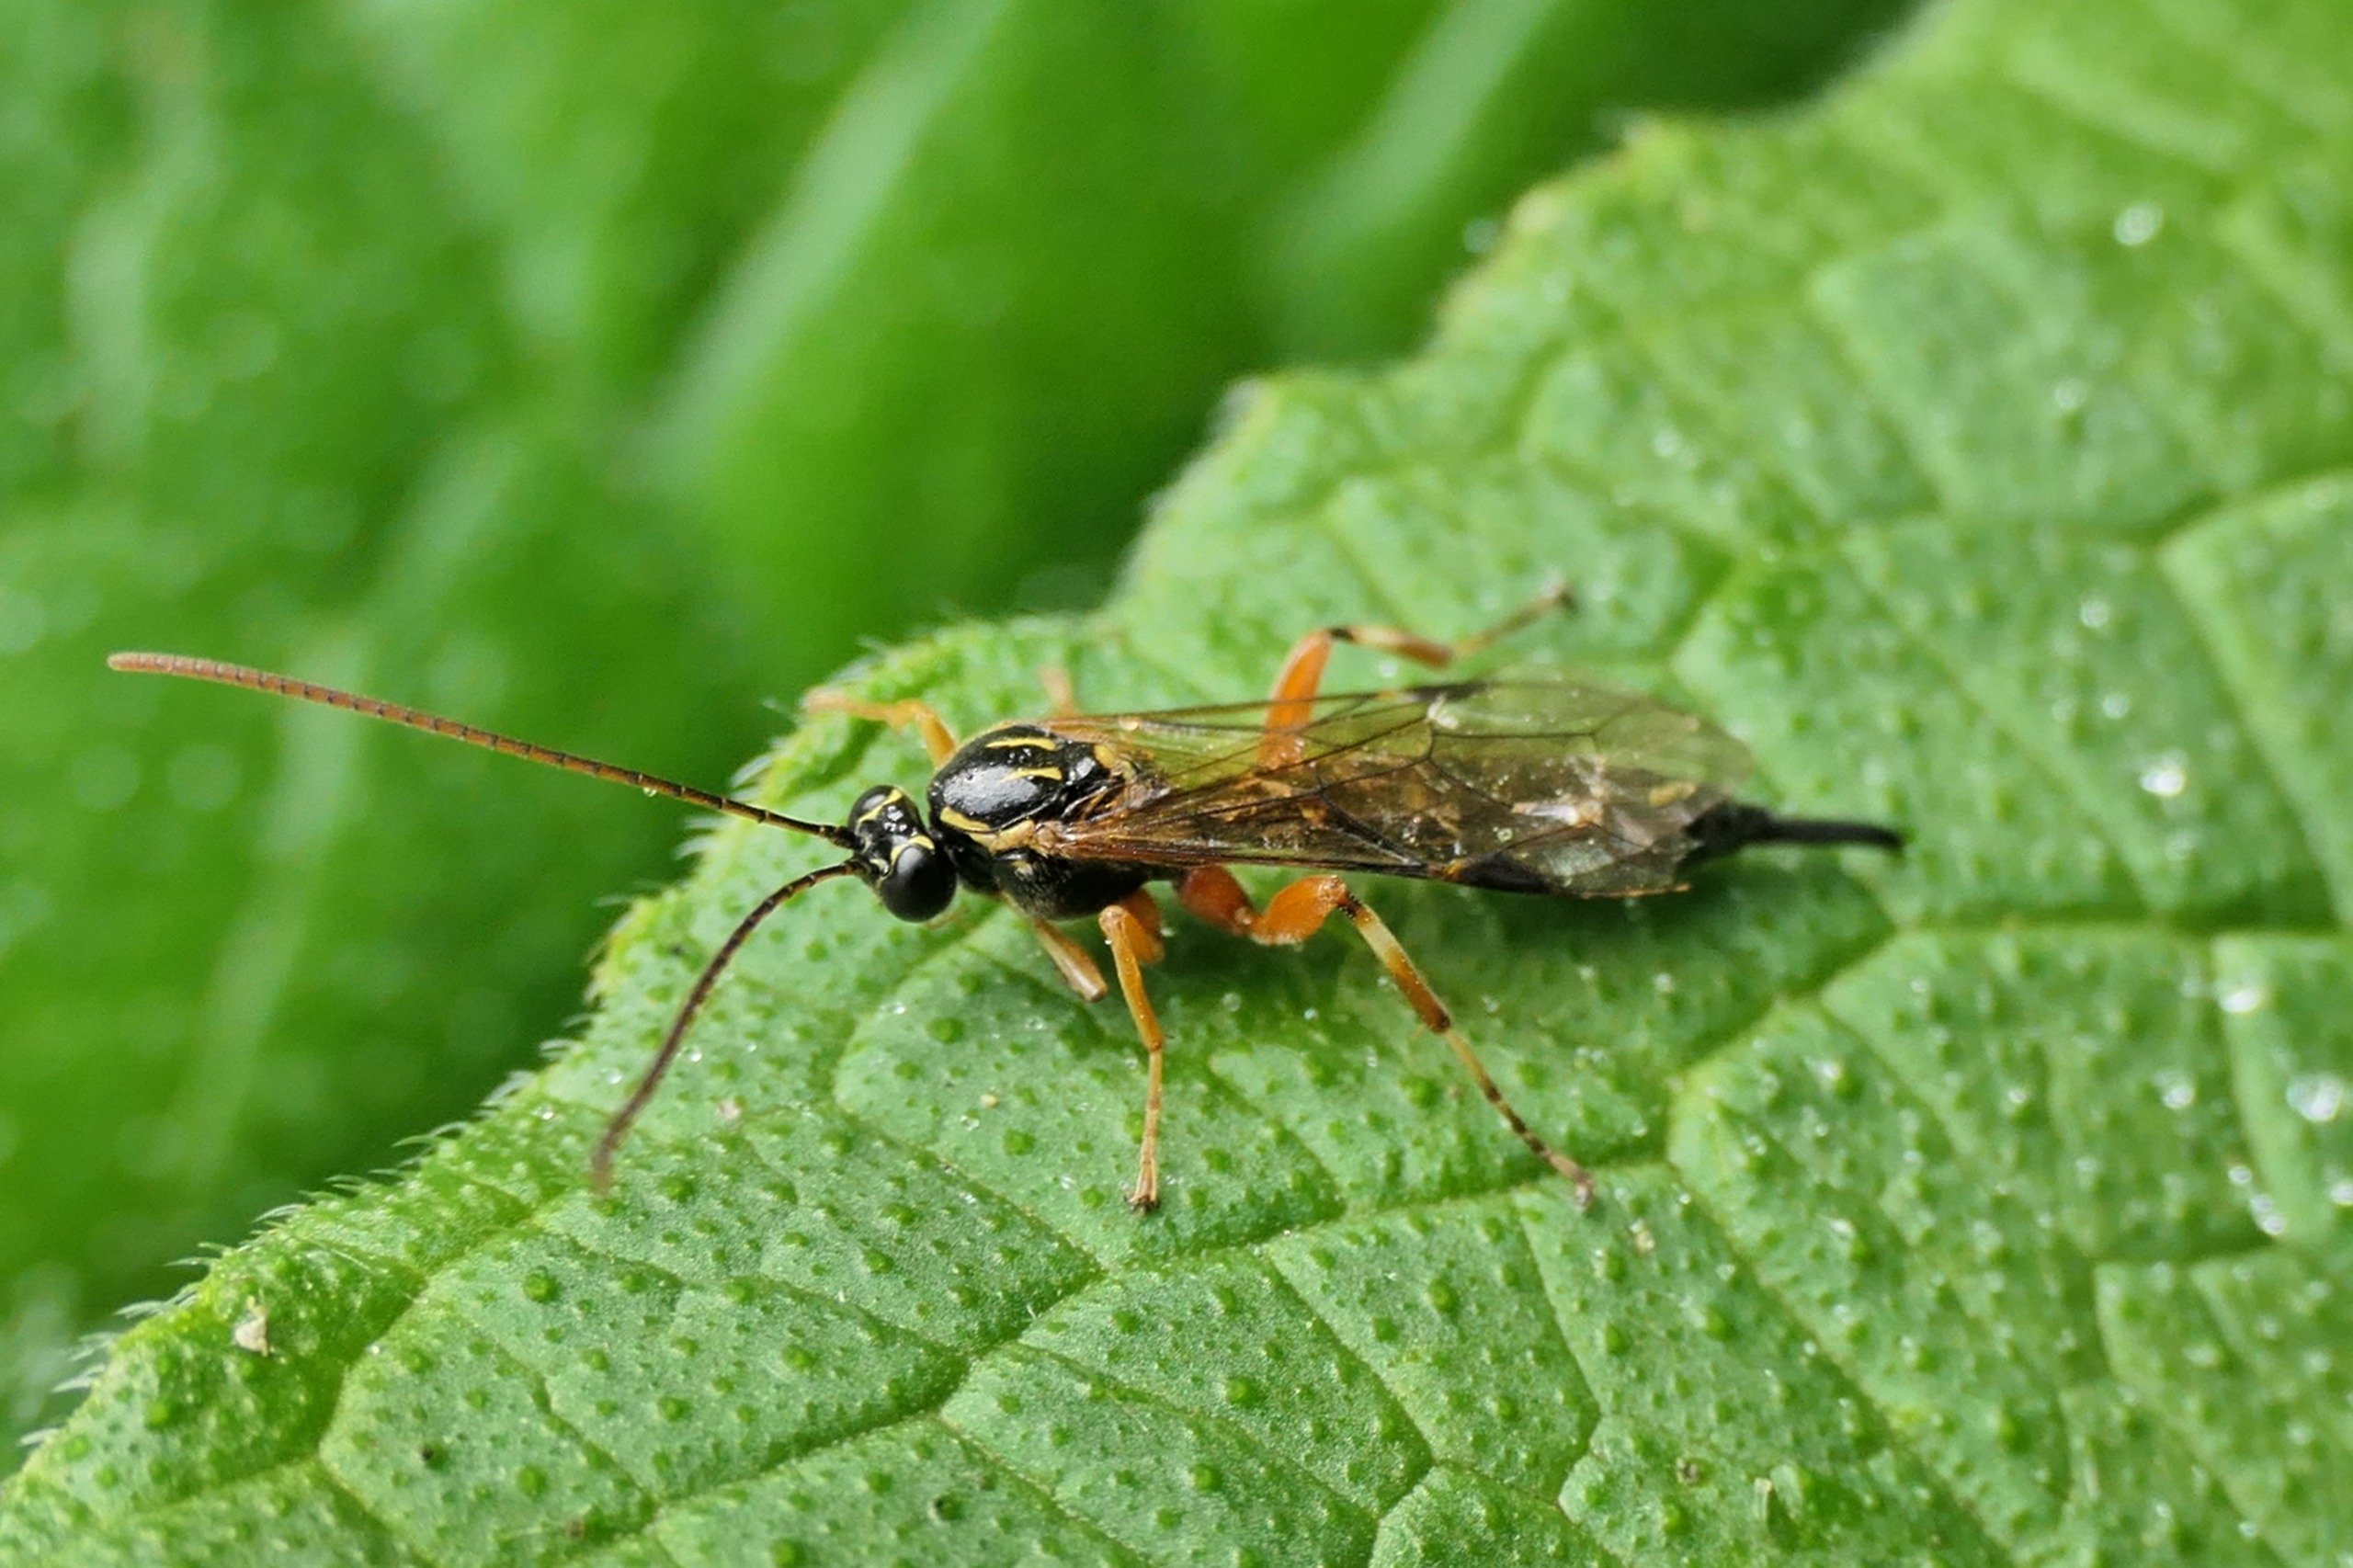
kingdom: Animalia
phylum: Arthropoda
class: Insecta
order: Hymenoptera
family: Ichneumonidae
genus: Apechthis
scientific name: Apechthis rufata
